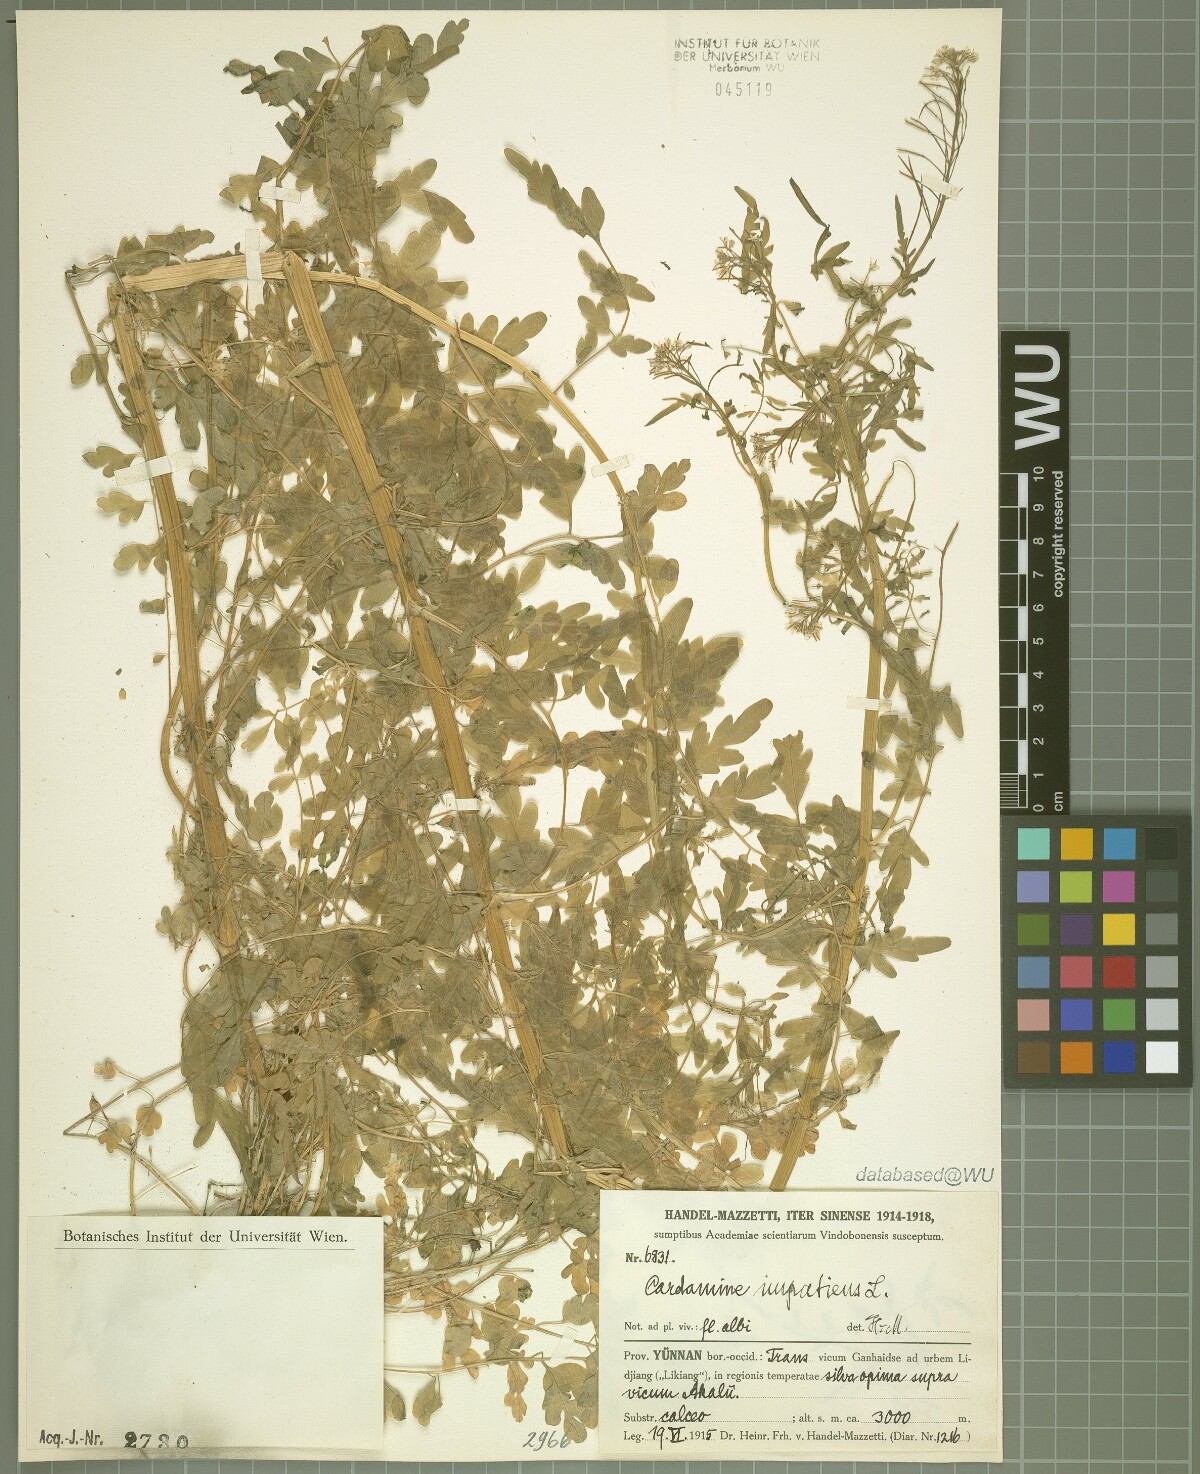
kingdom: Plantae
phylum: Tracheophyta
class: Magnoliopsida
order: Brassicales
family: Brassicaceae
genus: Cardamine
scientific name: Cardamine impatiens
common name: Narrow-leaved bitter-cress
